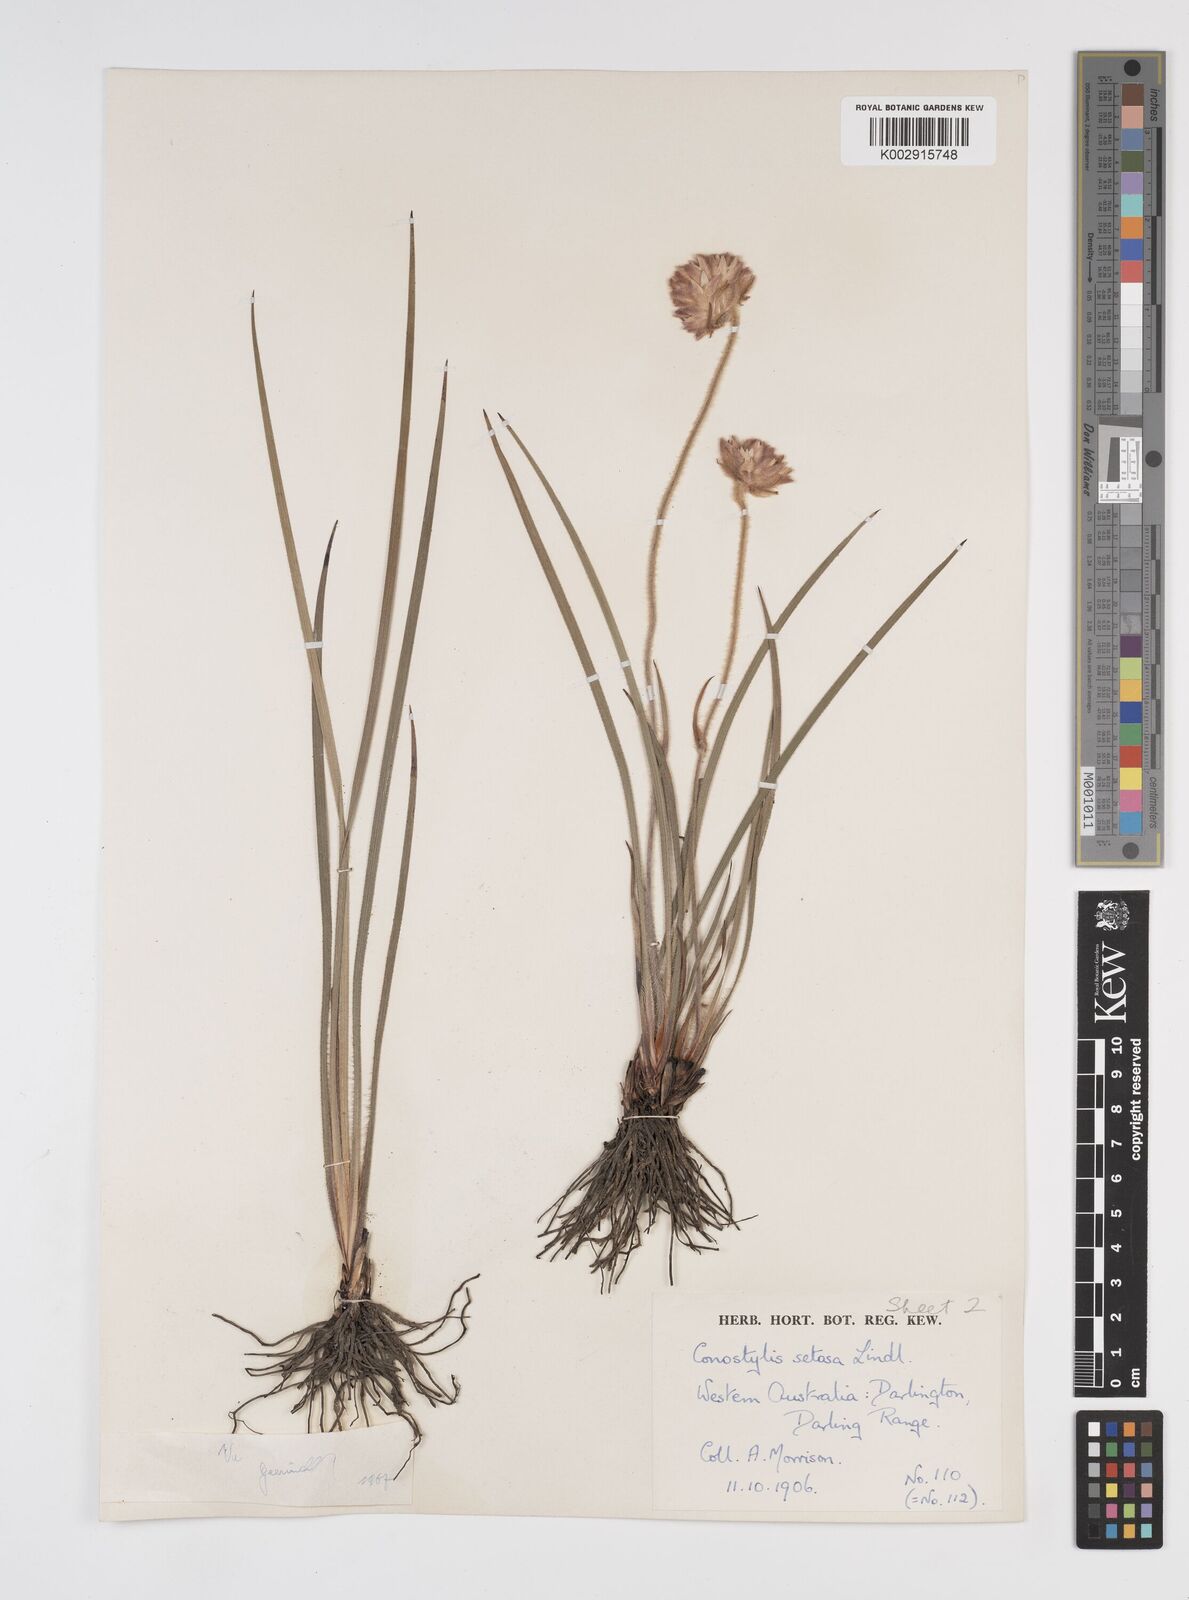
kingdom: Plantae
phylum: Tracheophyta
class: Liliopsida
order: Commelinales
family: Haemodoraceae
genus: Conostylis
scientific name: Conostylis setosa
